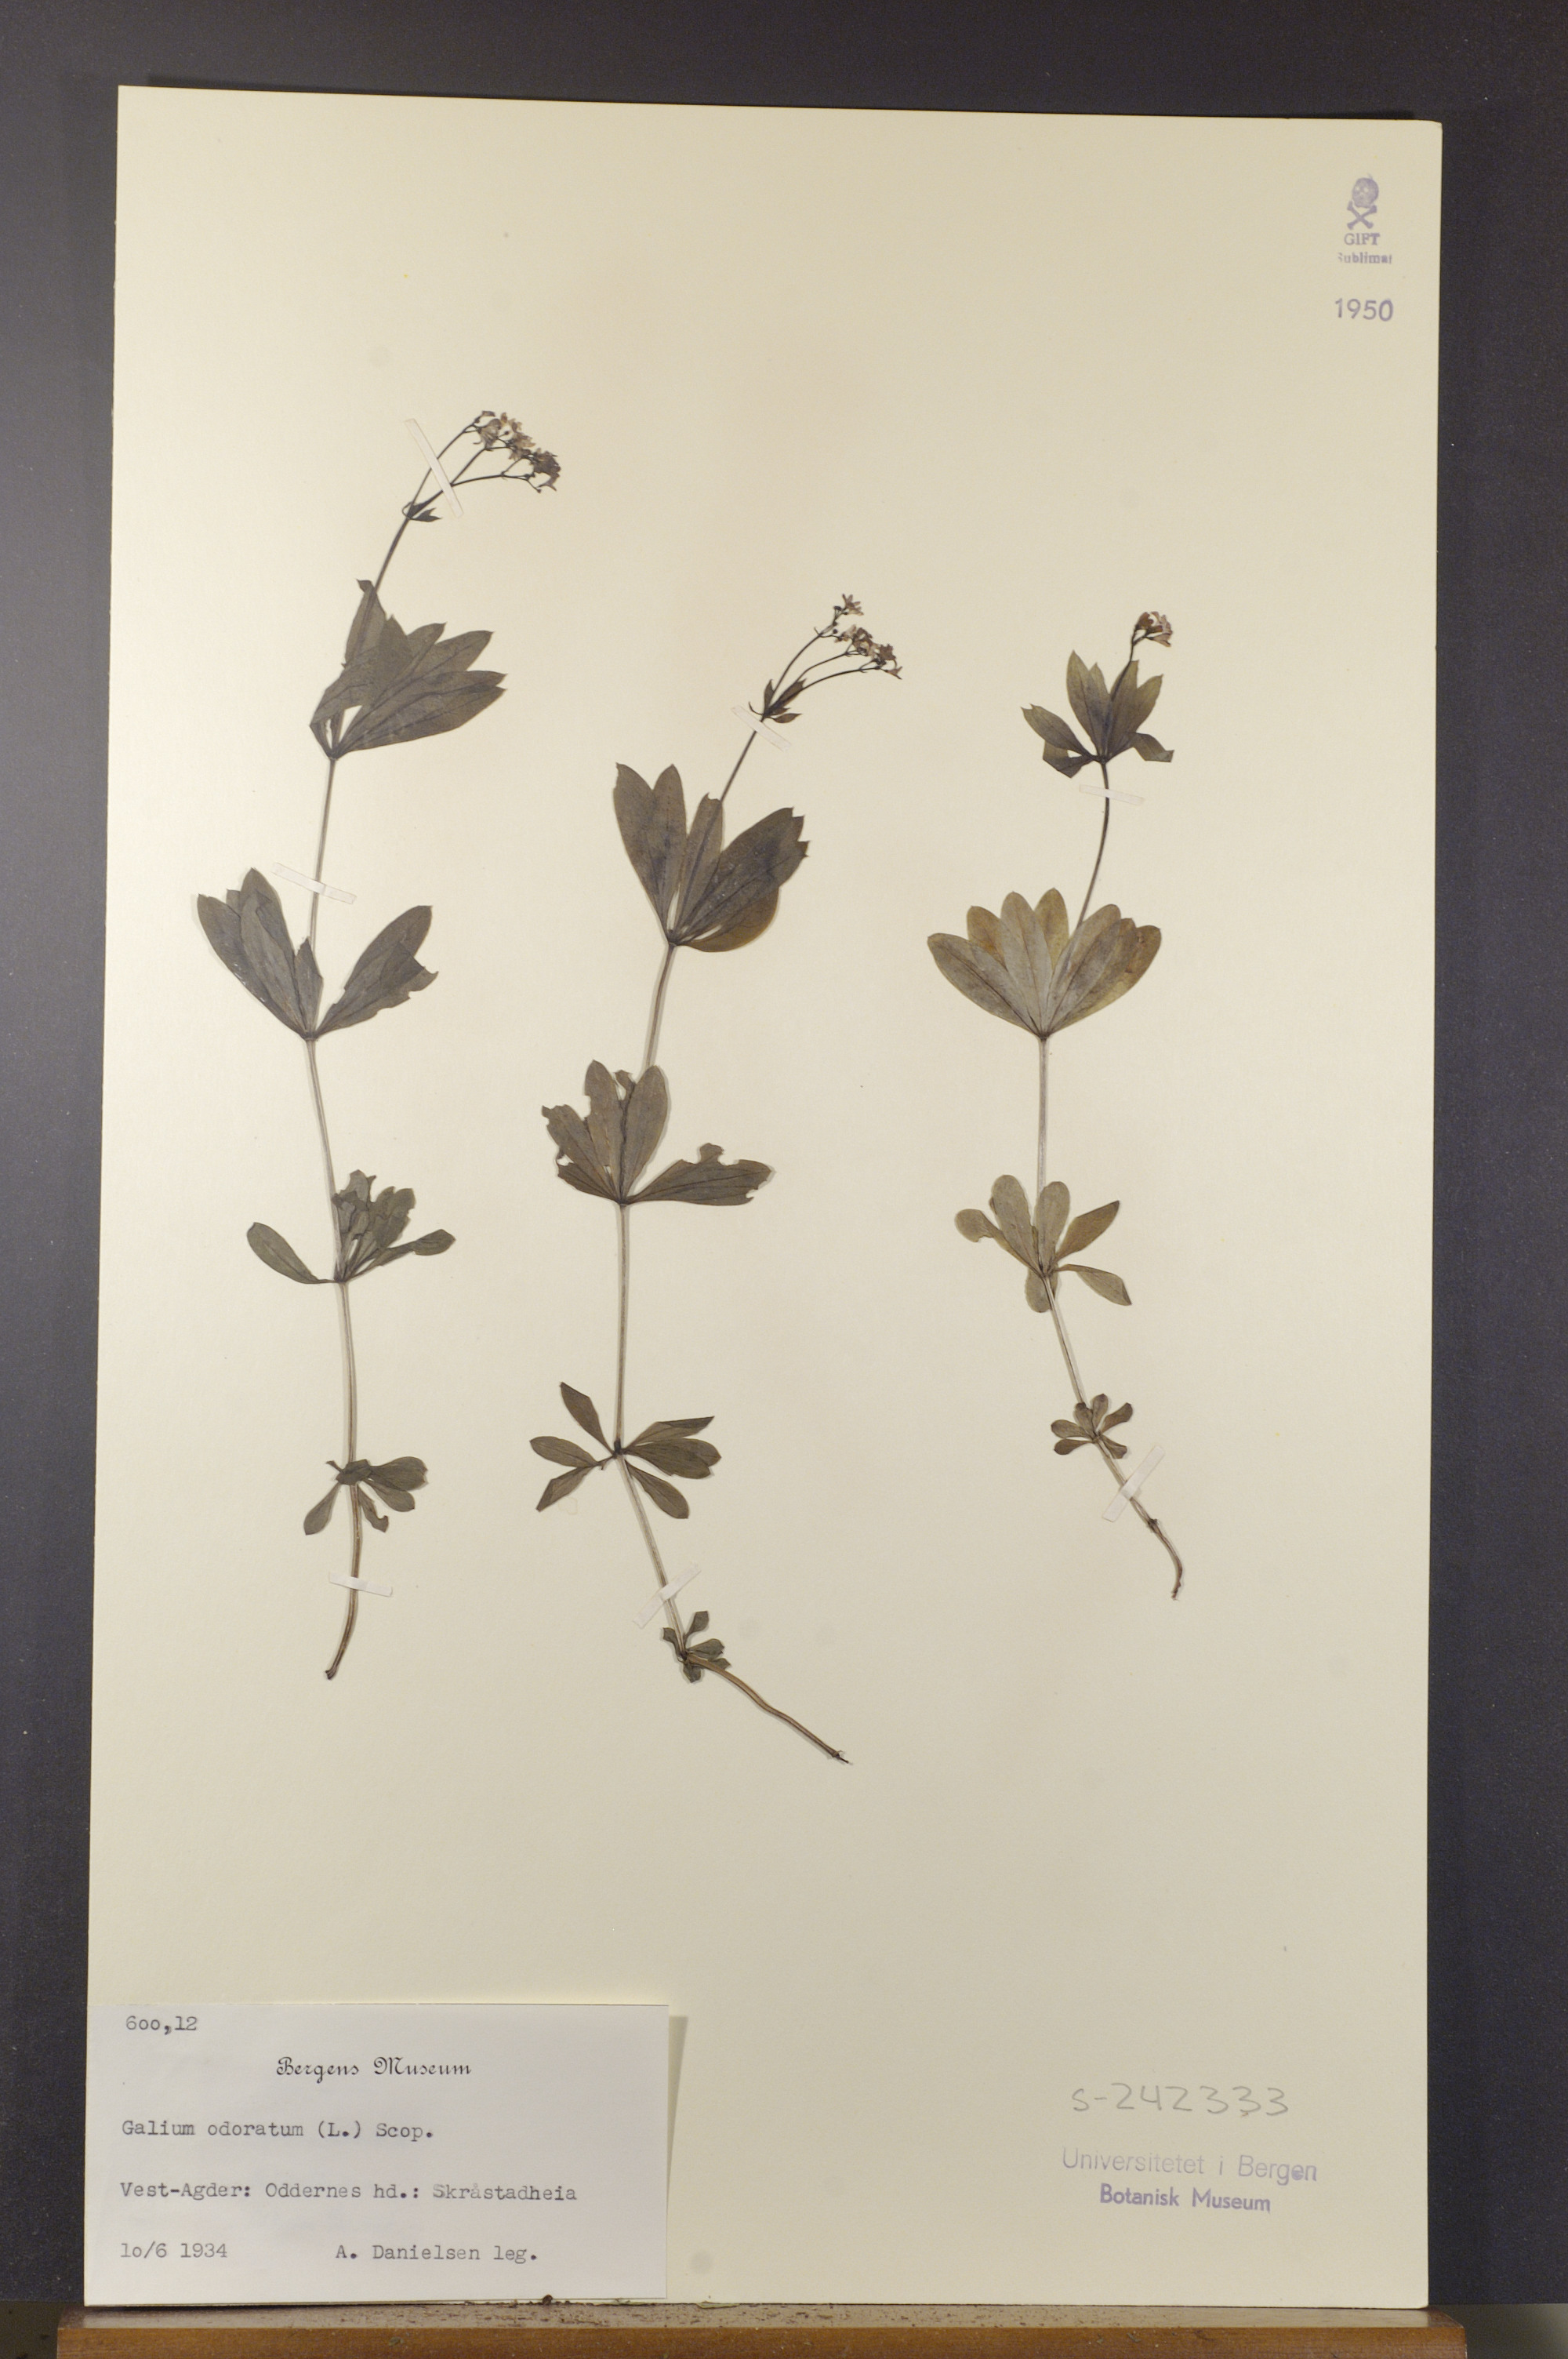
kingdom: Plantae
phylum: Tracheophyta
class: Magnoliopsida
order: Gentianales
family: Rubiaceae
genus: Galium
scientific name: Galium odoratum
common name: Sweet woodruff
